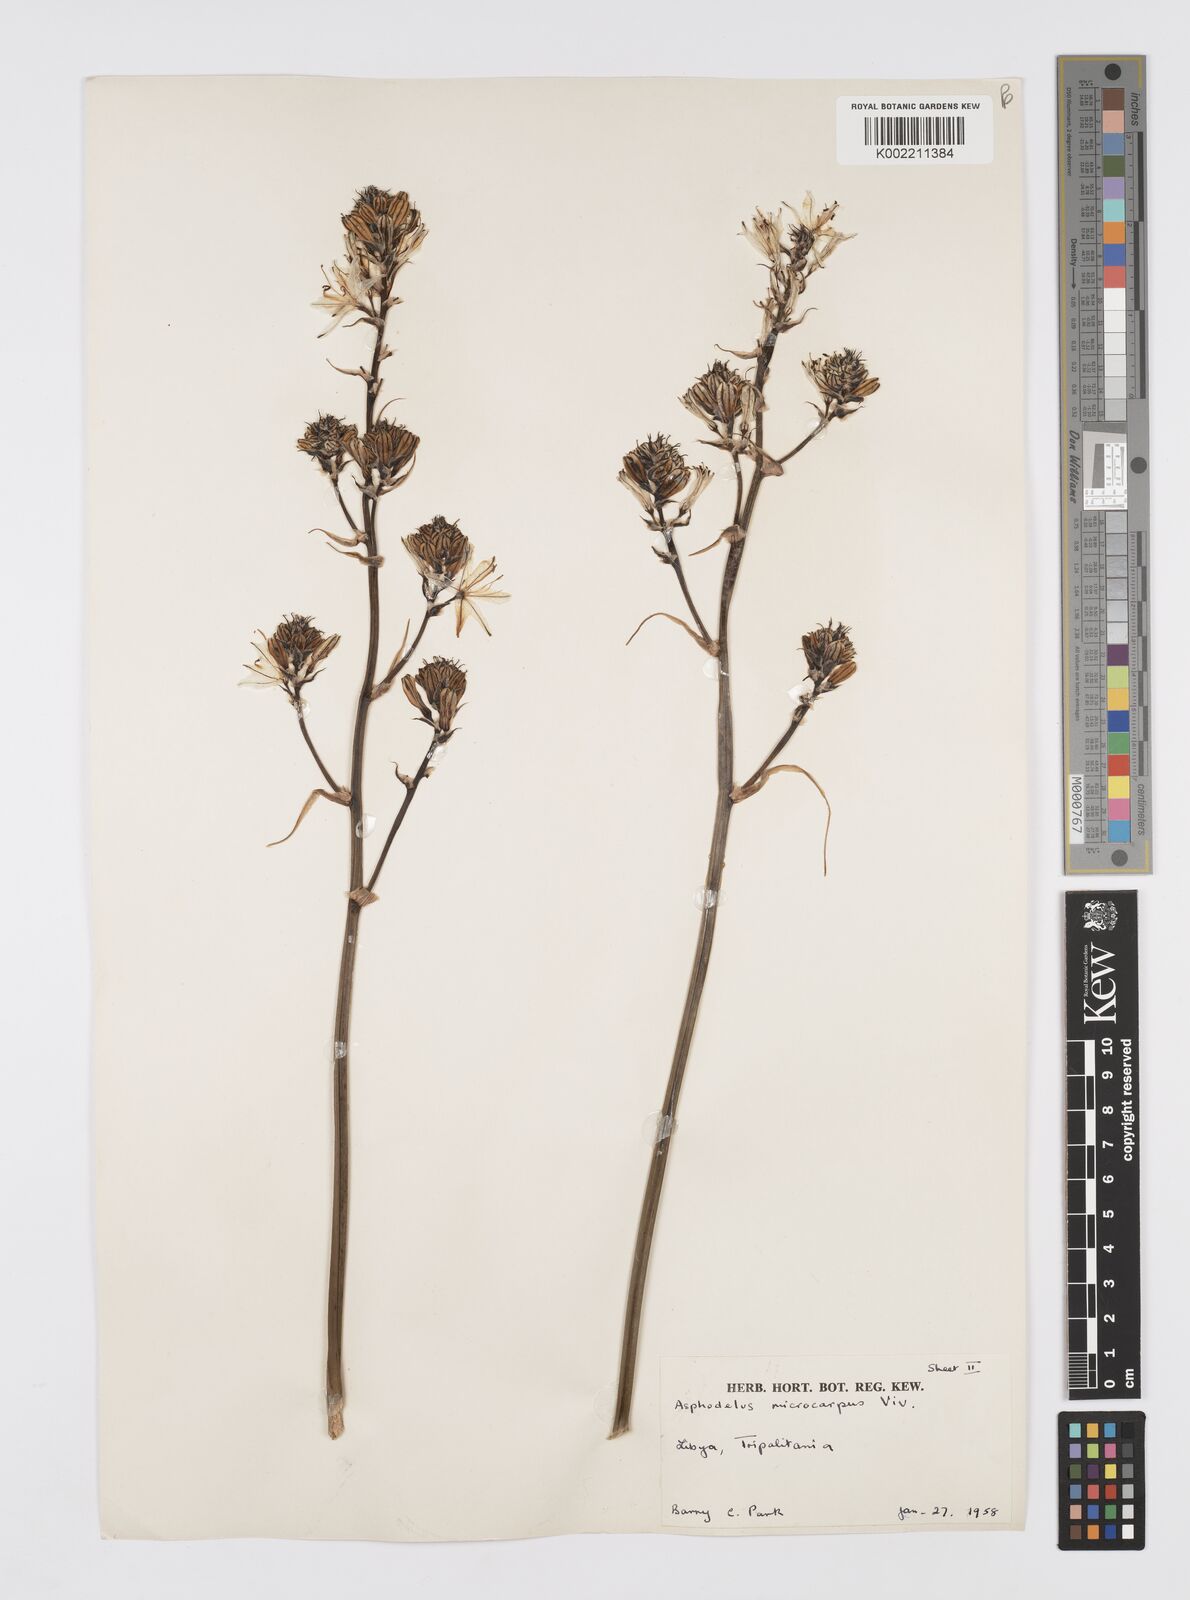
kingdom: Plantae
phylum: Tracheophyta
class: Liliopsida
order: Asparagales
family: Asphodelaceae
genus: Asphodelus
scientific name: Asphodelus ramosus
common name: Silverrod
